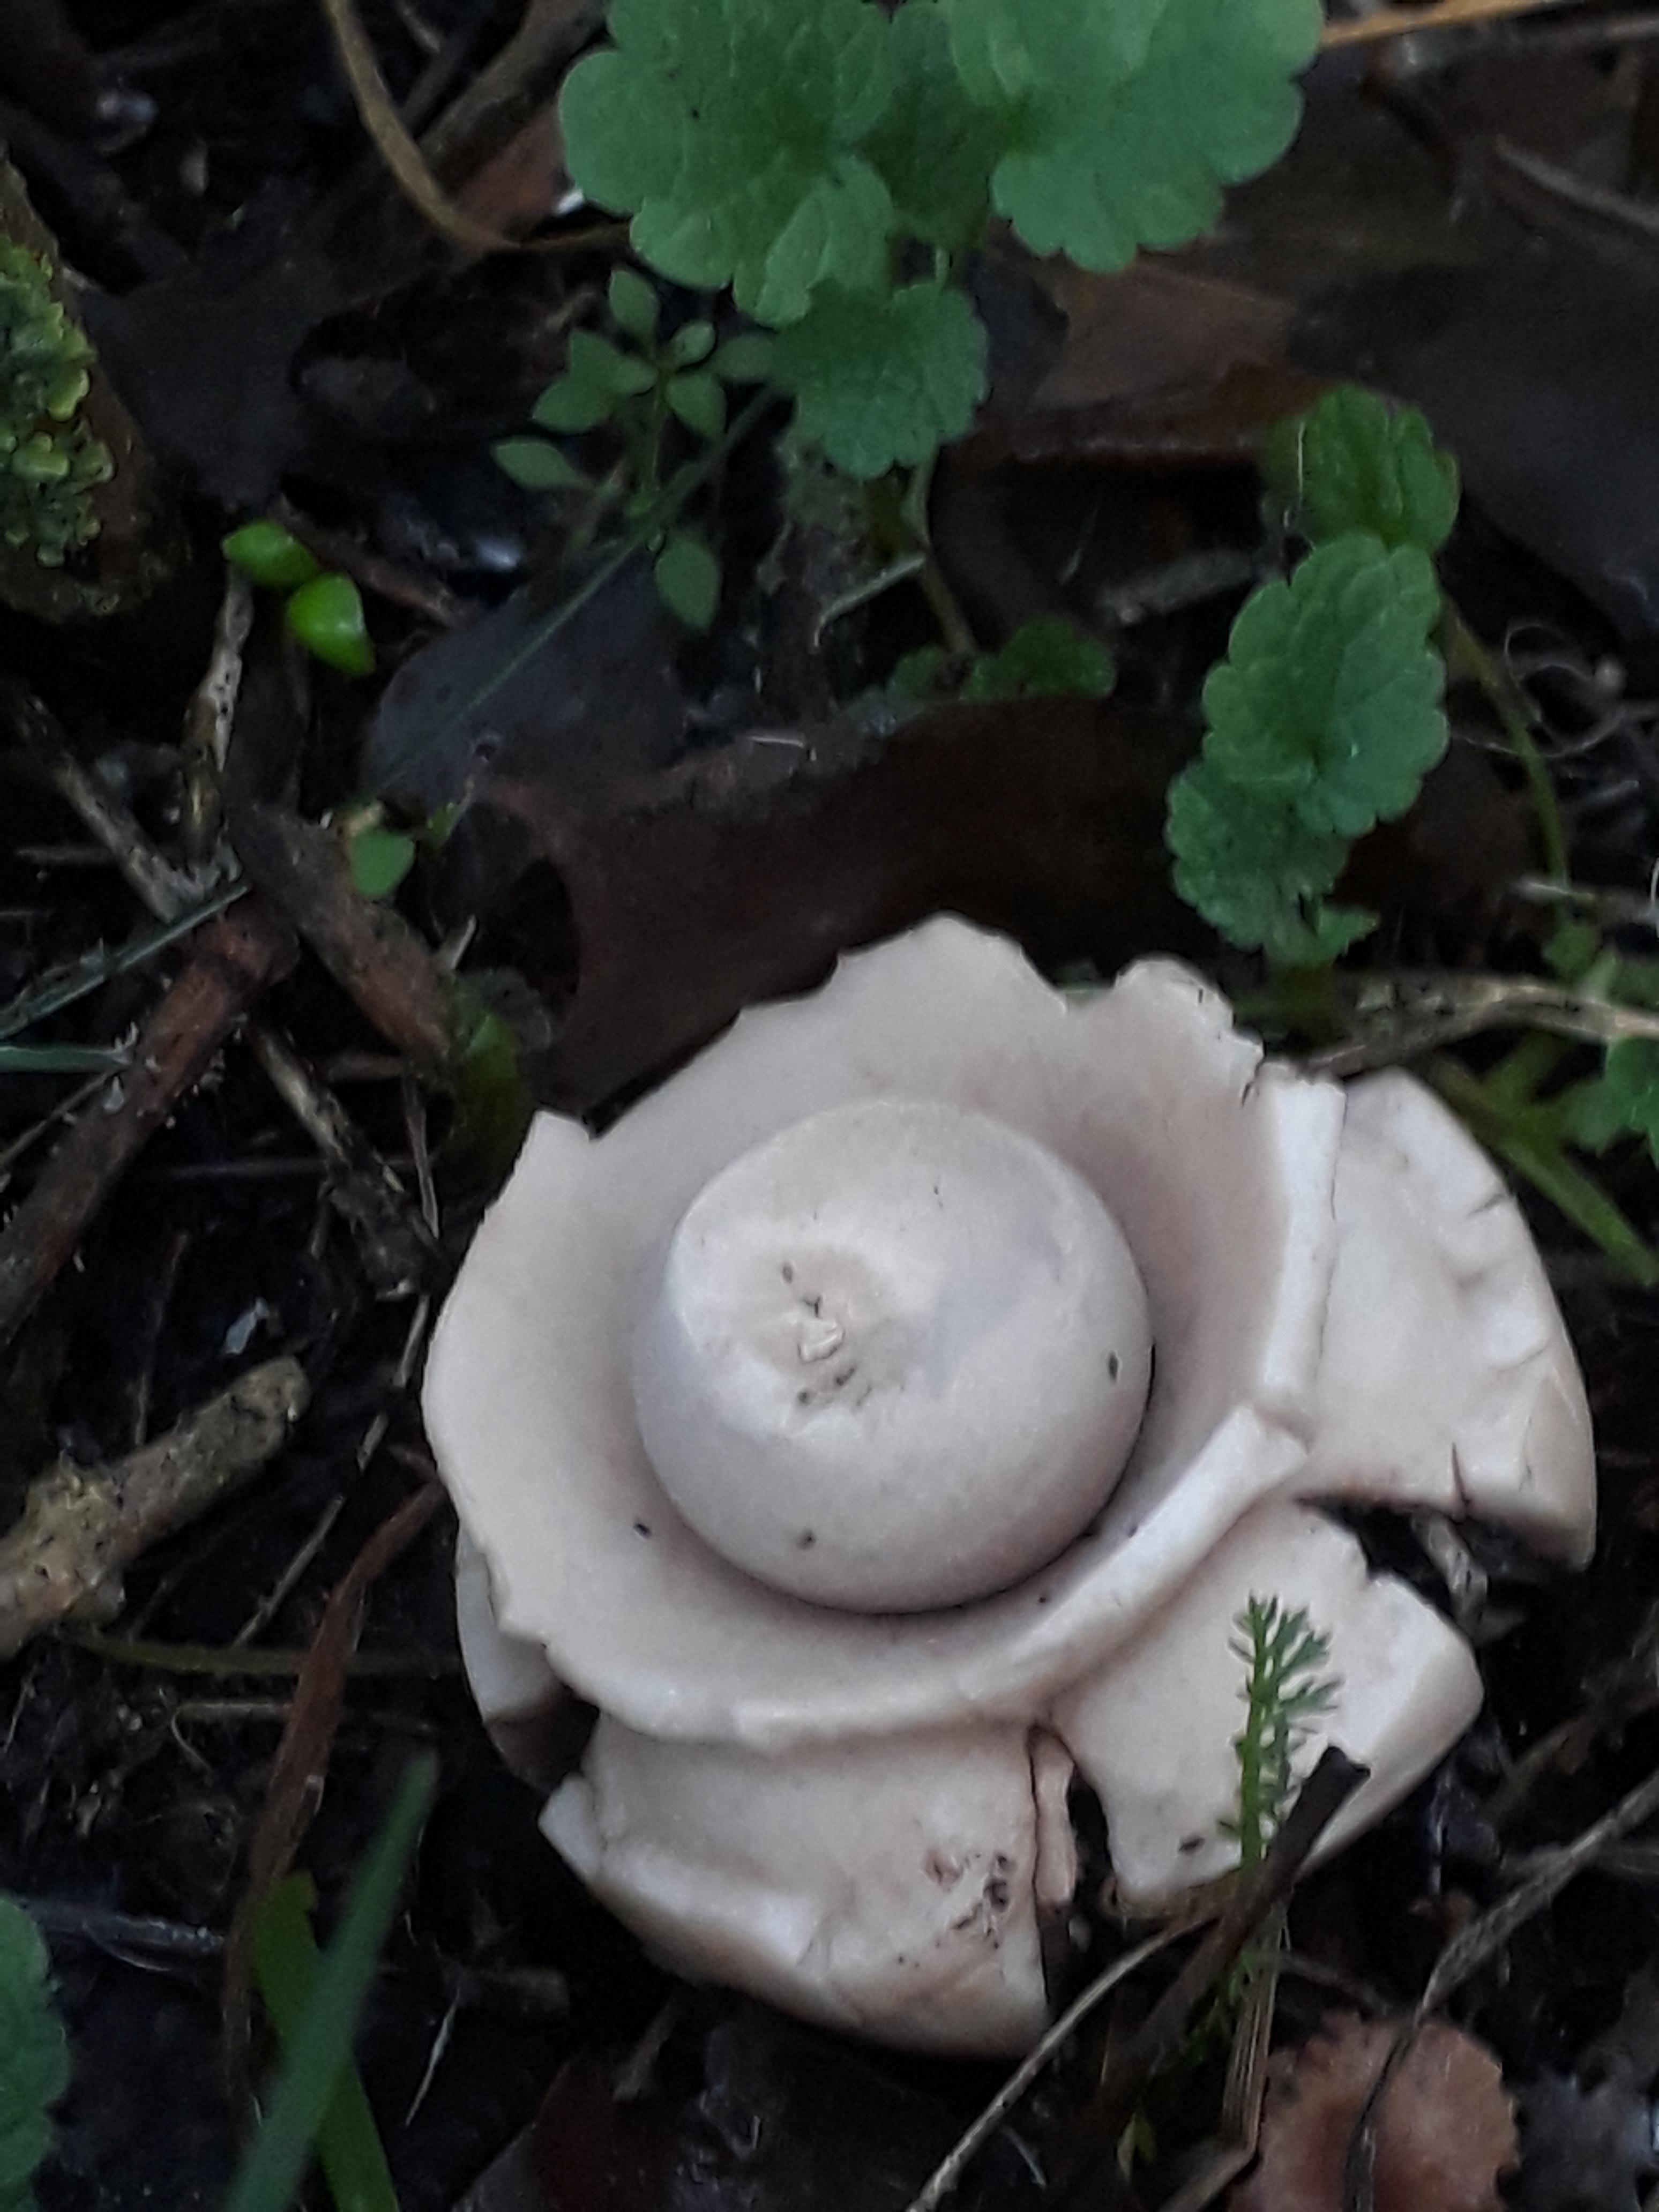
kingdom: Fungi
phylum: Basidiomycota
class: Agaricomycetes
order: Geastrales
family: Geastraceae
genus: Geastrum
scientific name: Geastrum michelianum
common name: kødet stjernebold
